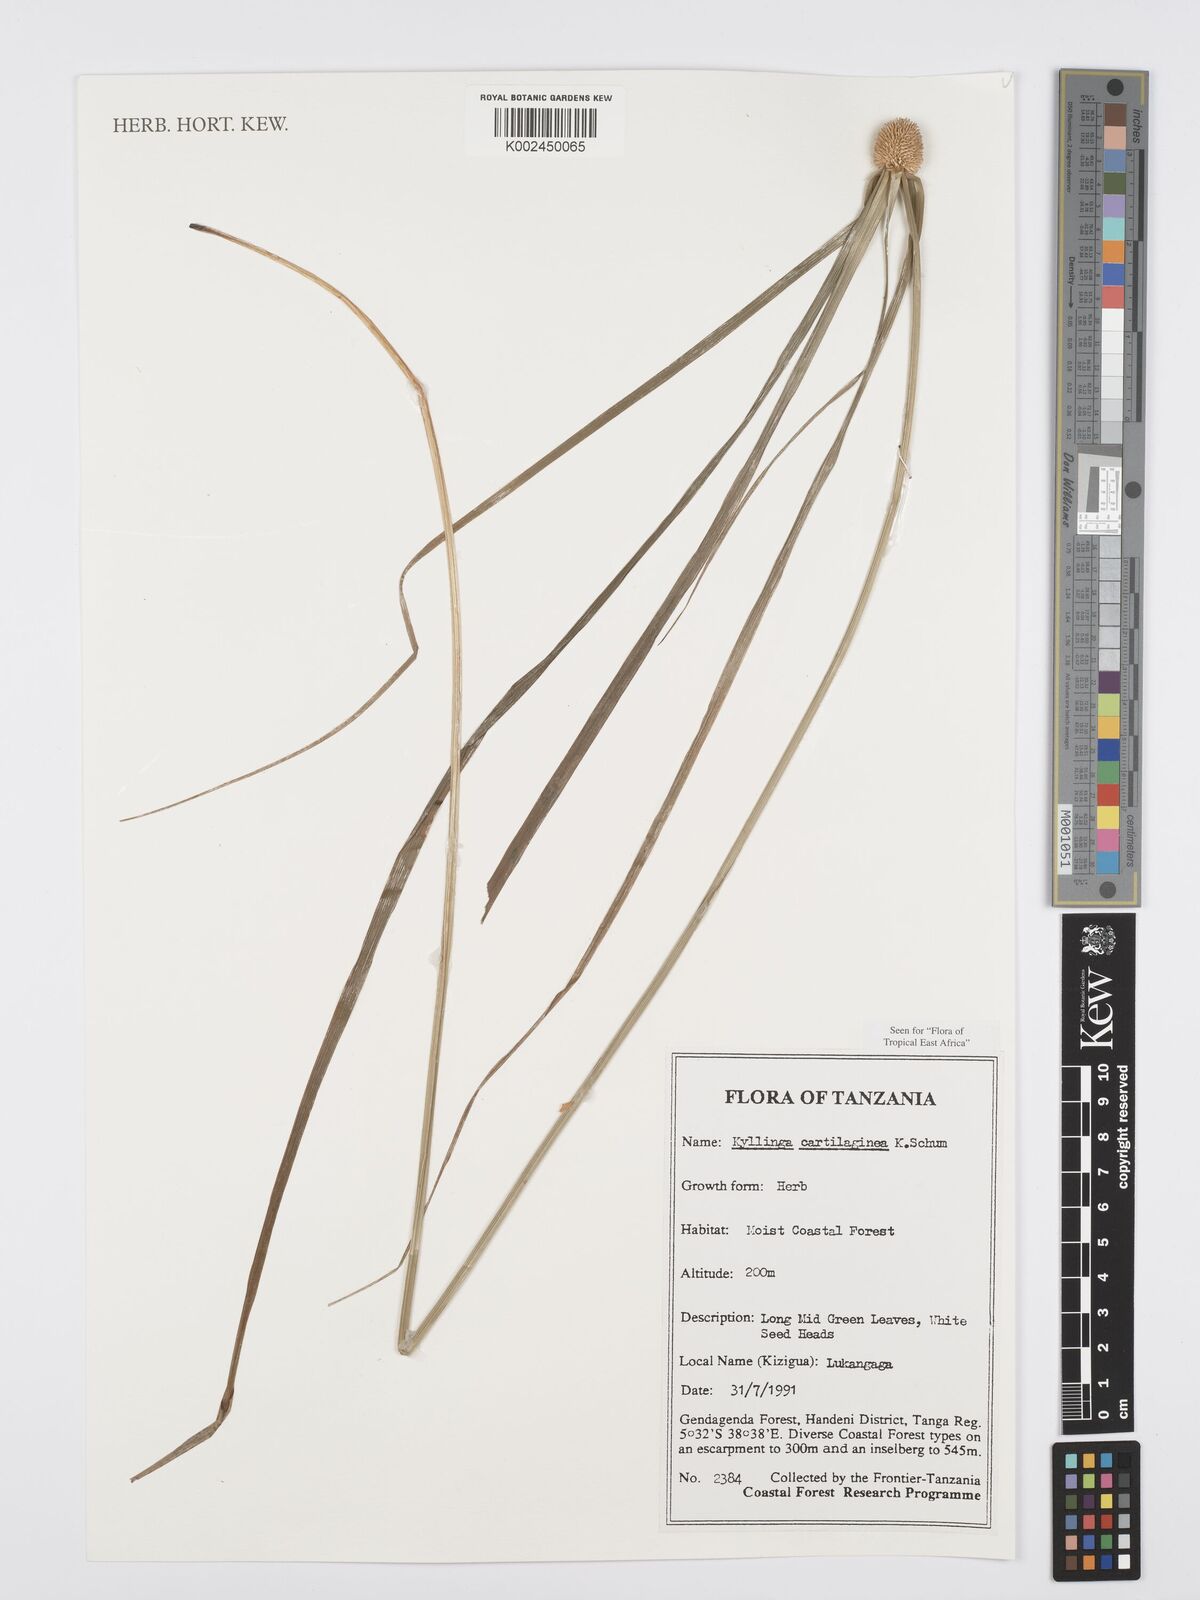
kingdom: Plantae
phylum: Tracheophyta
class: Liliopsida
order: Poales
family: Cyperaceae
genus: Cyperus
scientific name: Cyperus cartilagineus
